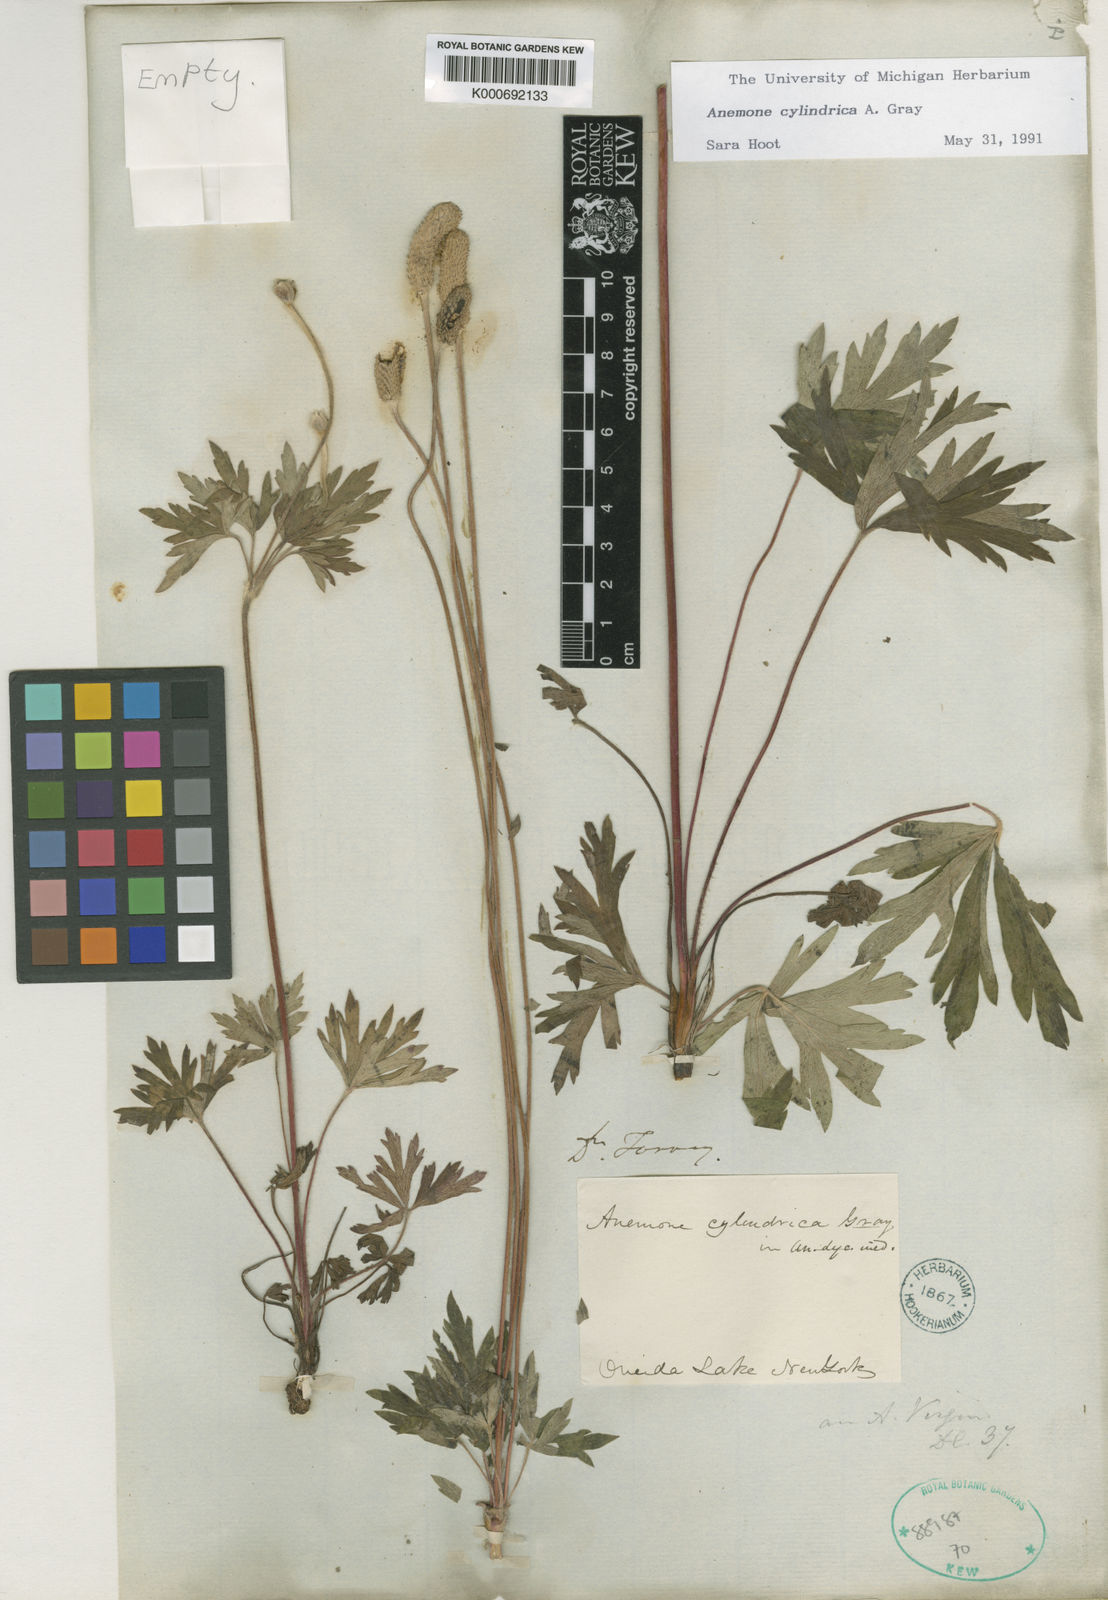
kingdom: Plantae
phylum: Tracheophyta
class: Magnoliopsida
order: Ranunculales
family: Ranunculaceae
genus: Anemone
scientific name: Anemone cylindrica
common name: Candle anemone
